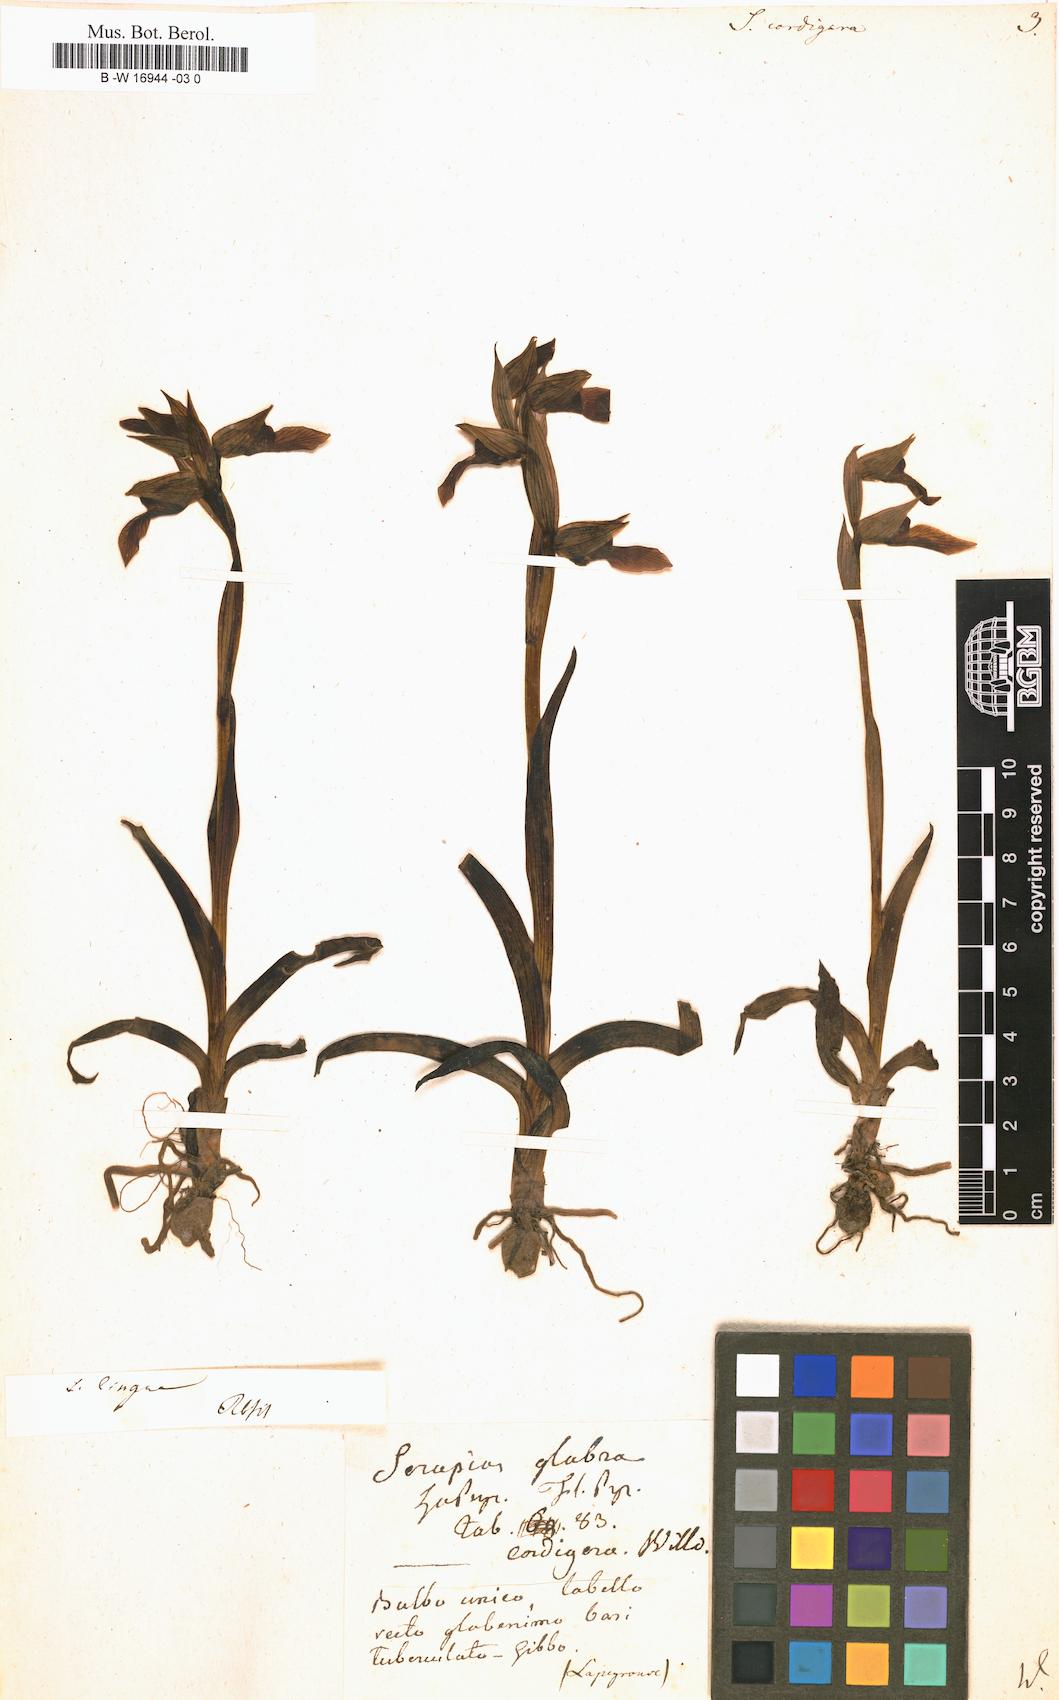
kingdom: Plantae
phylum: Tracheophyta
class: Liliopsida
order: Asparagales
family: Orchidaceae
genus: Serapias
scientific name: Serapias cordigera
